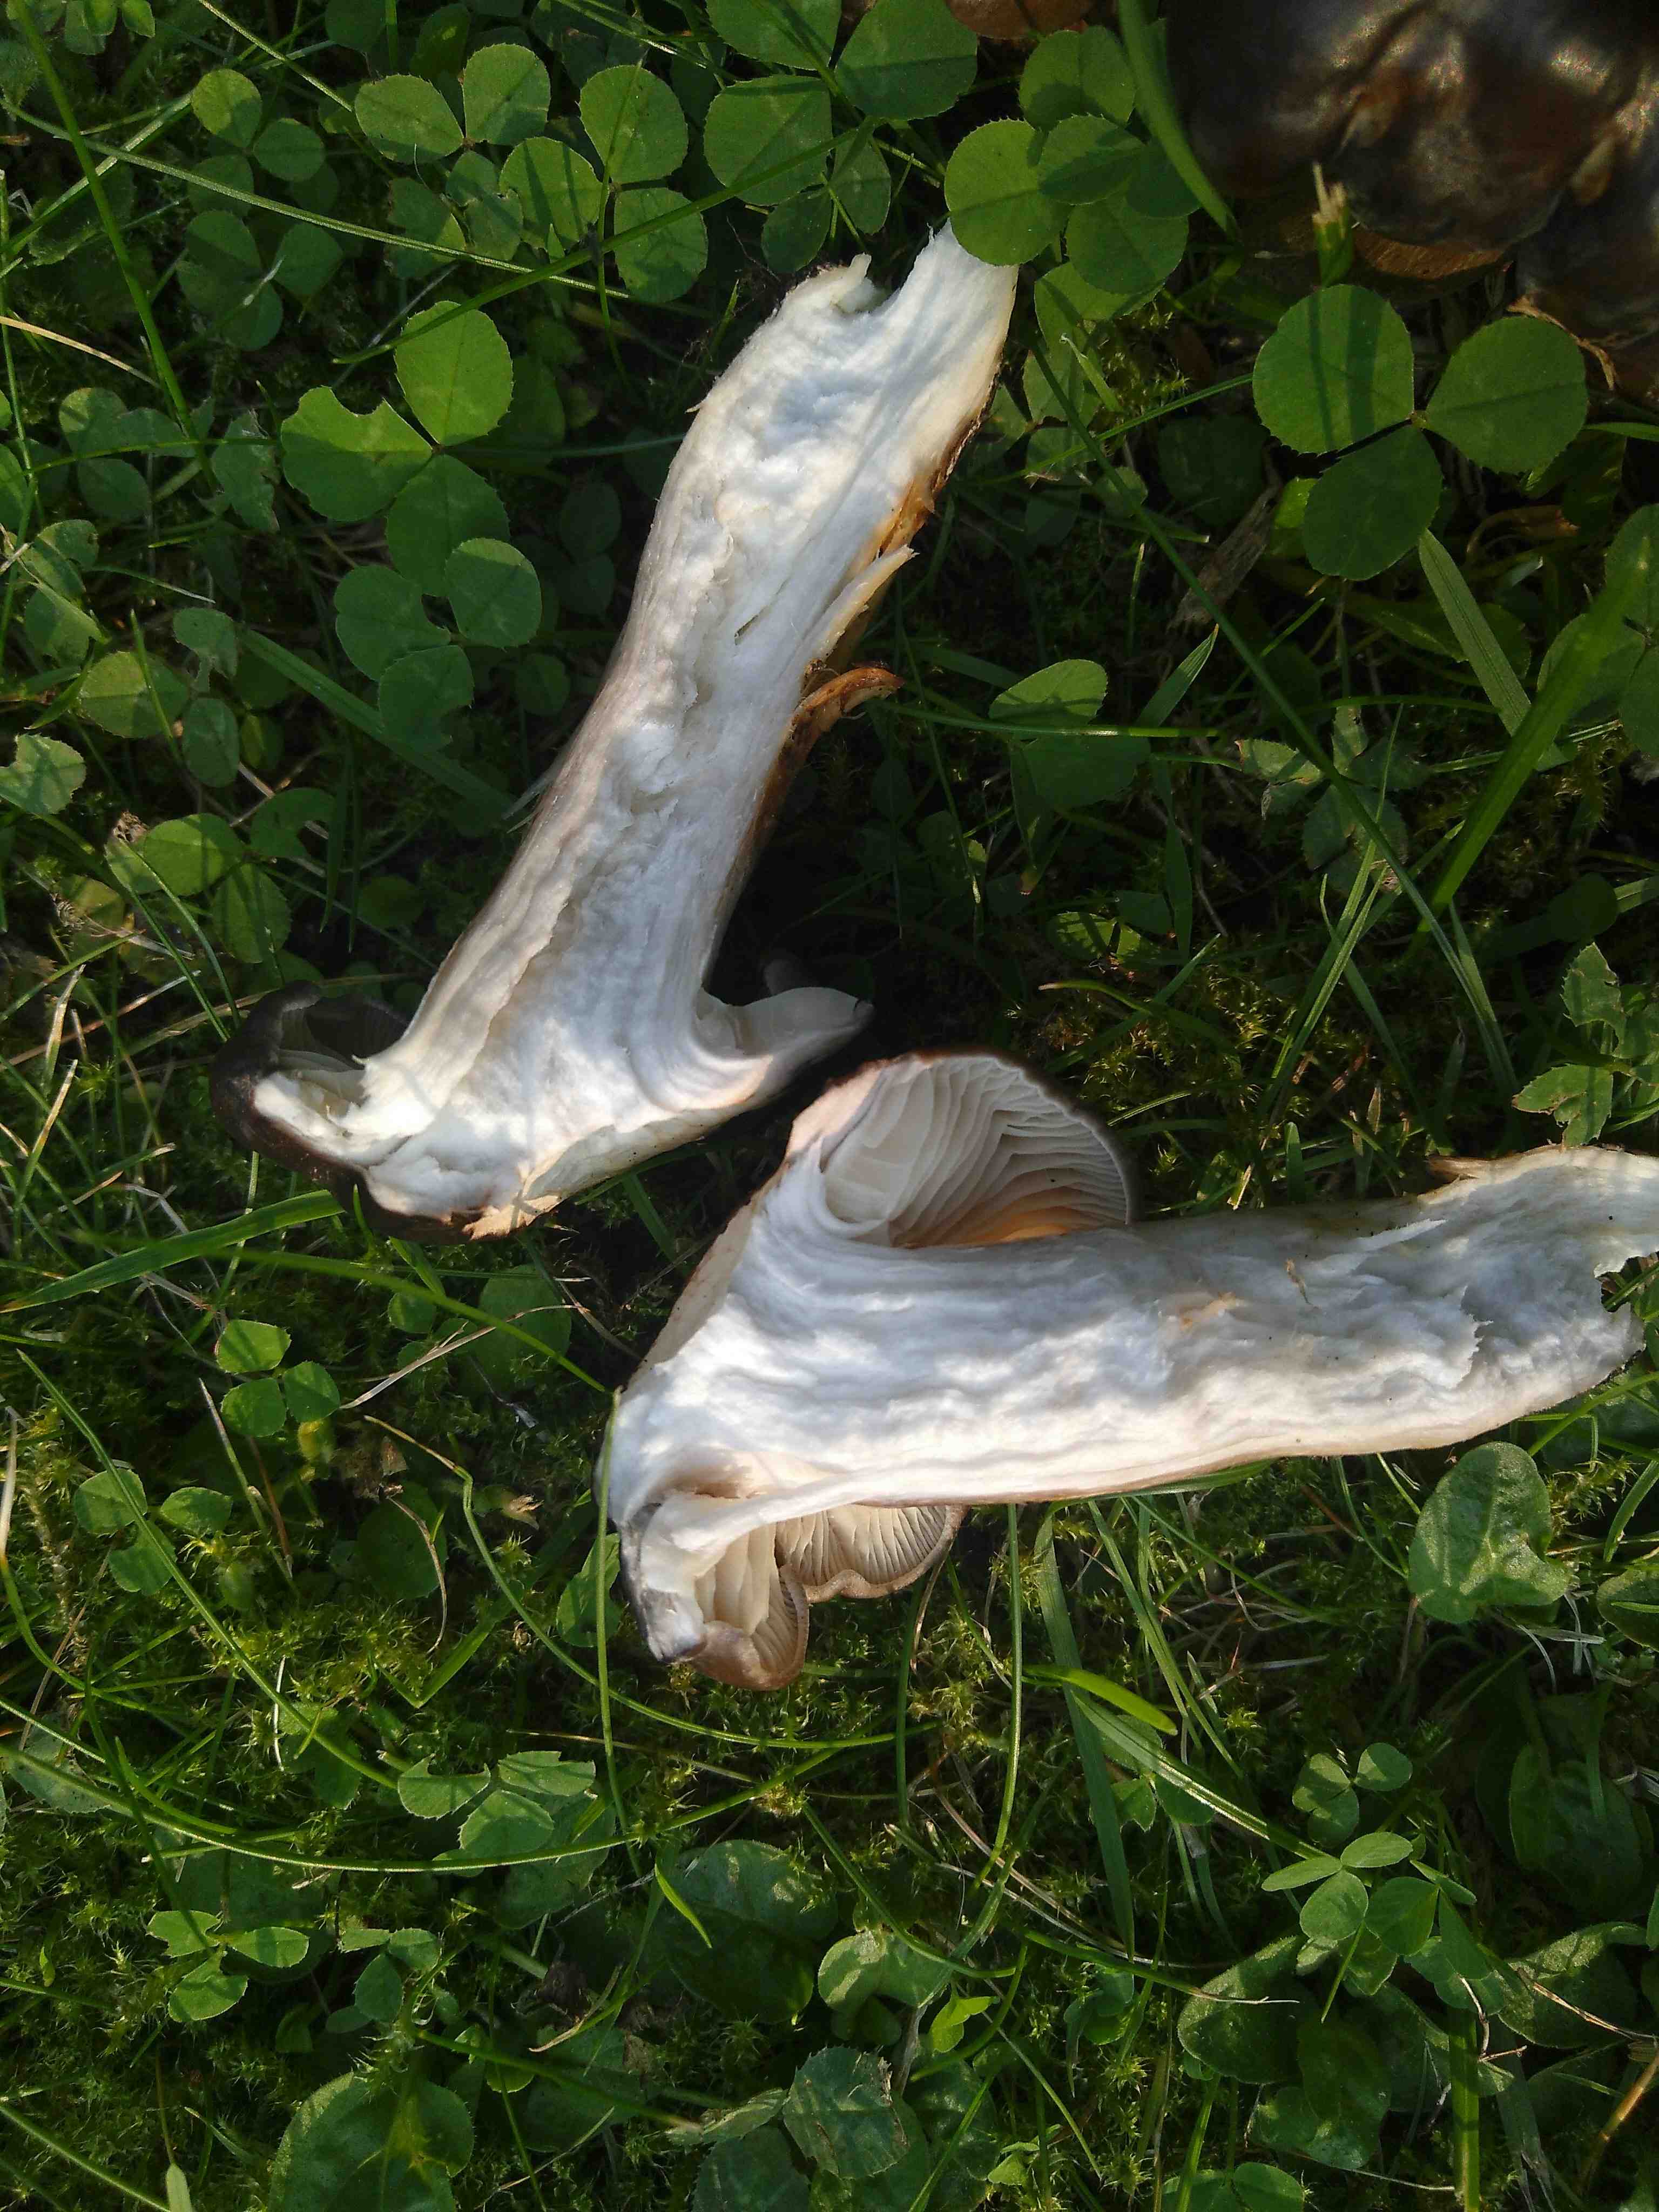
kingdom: Fungi
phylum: Basidiomycota
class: Agaricomycetes
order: Agaricales
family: Lyophyllaceae
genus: Lyophyllum
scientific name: Lyophyllum decastes
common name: Clustered domecap
